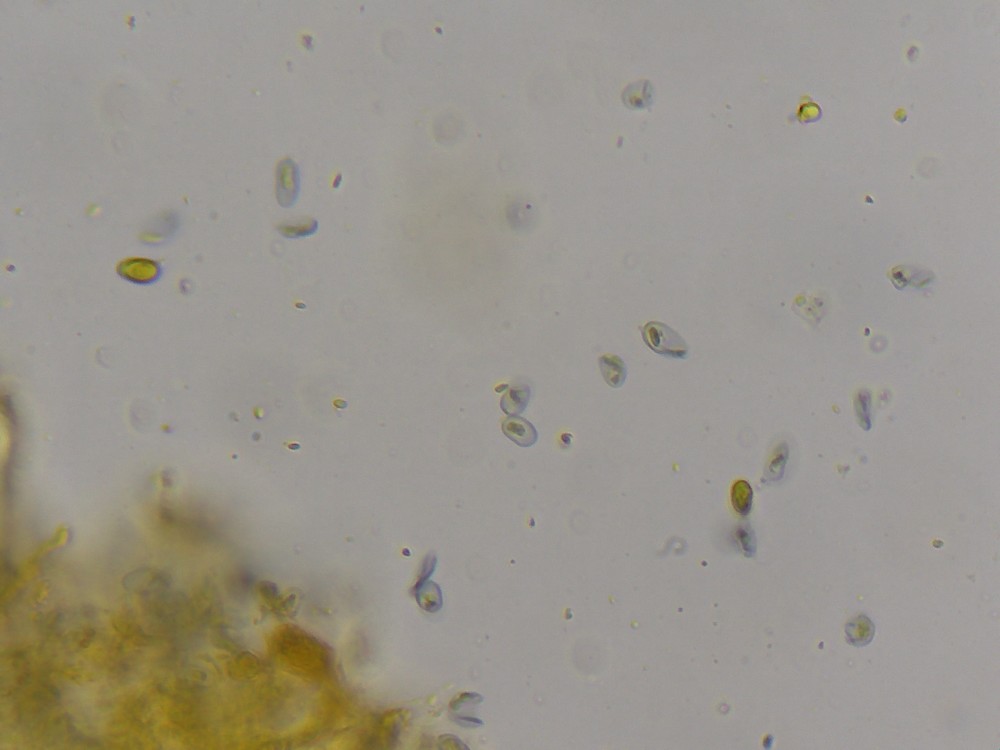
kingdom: Fungi
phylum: Basidiomycota
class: Agaricomycetes
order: Agaricales
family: Clavariaceae
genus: Mucronella
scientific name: Mucronella flava
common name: gul hængepig
